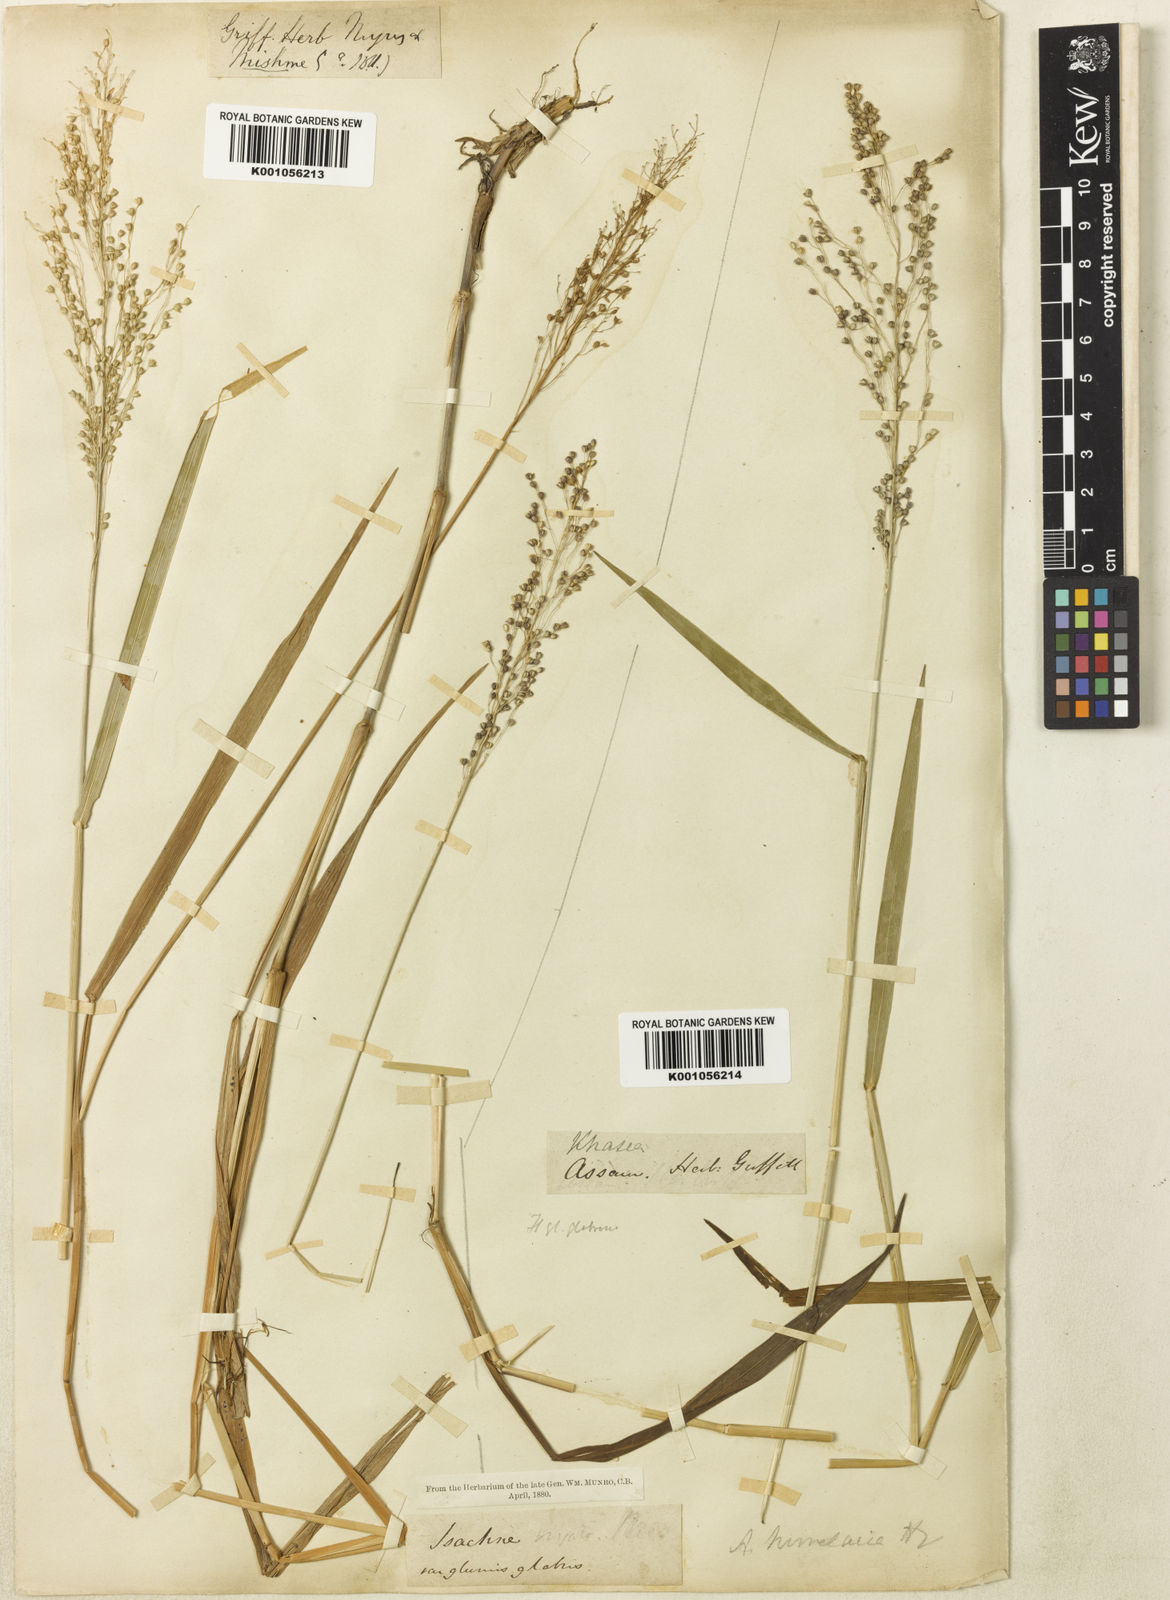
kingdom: Plantae
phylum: Tracheophyta
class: Liliopsida
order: Poales
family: Poaceae
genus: Isachne
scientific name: Isachne himalaica
